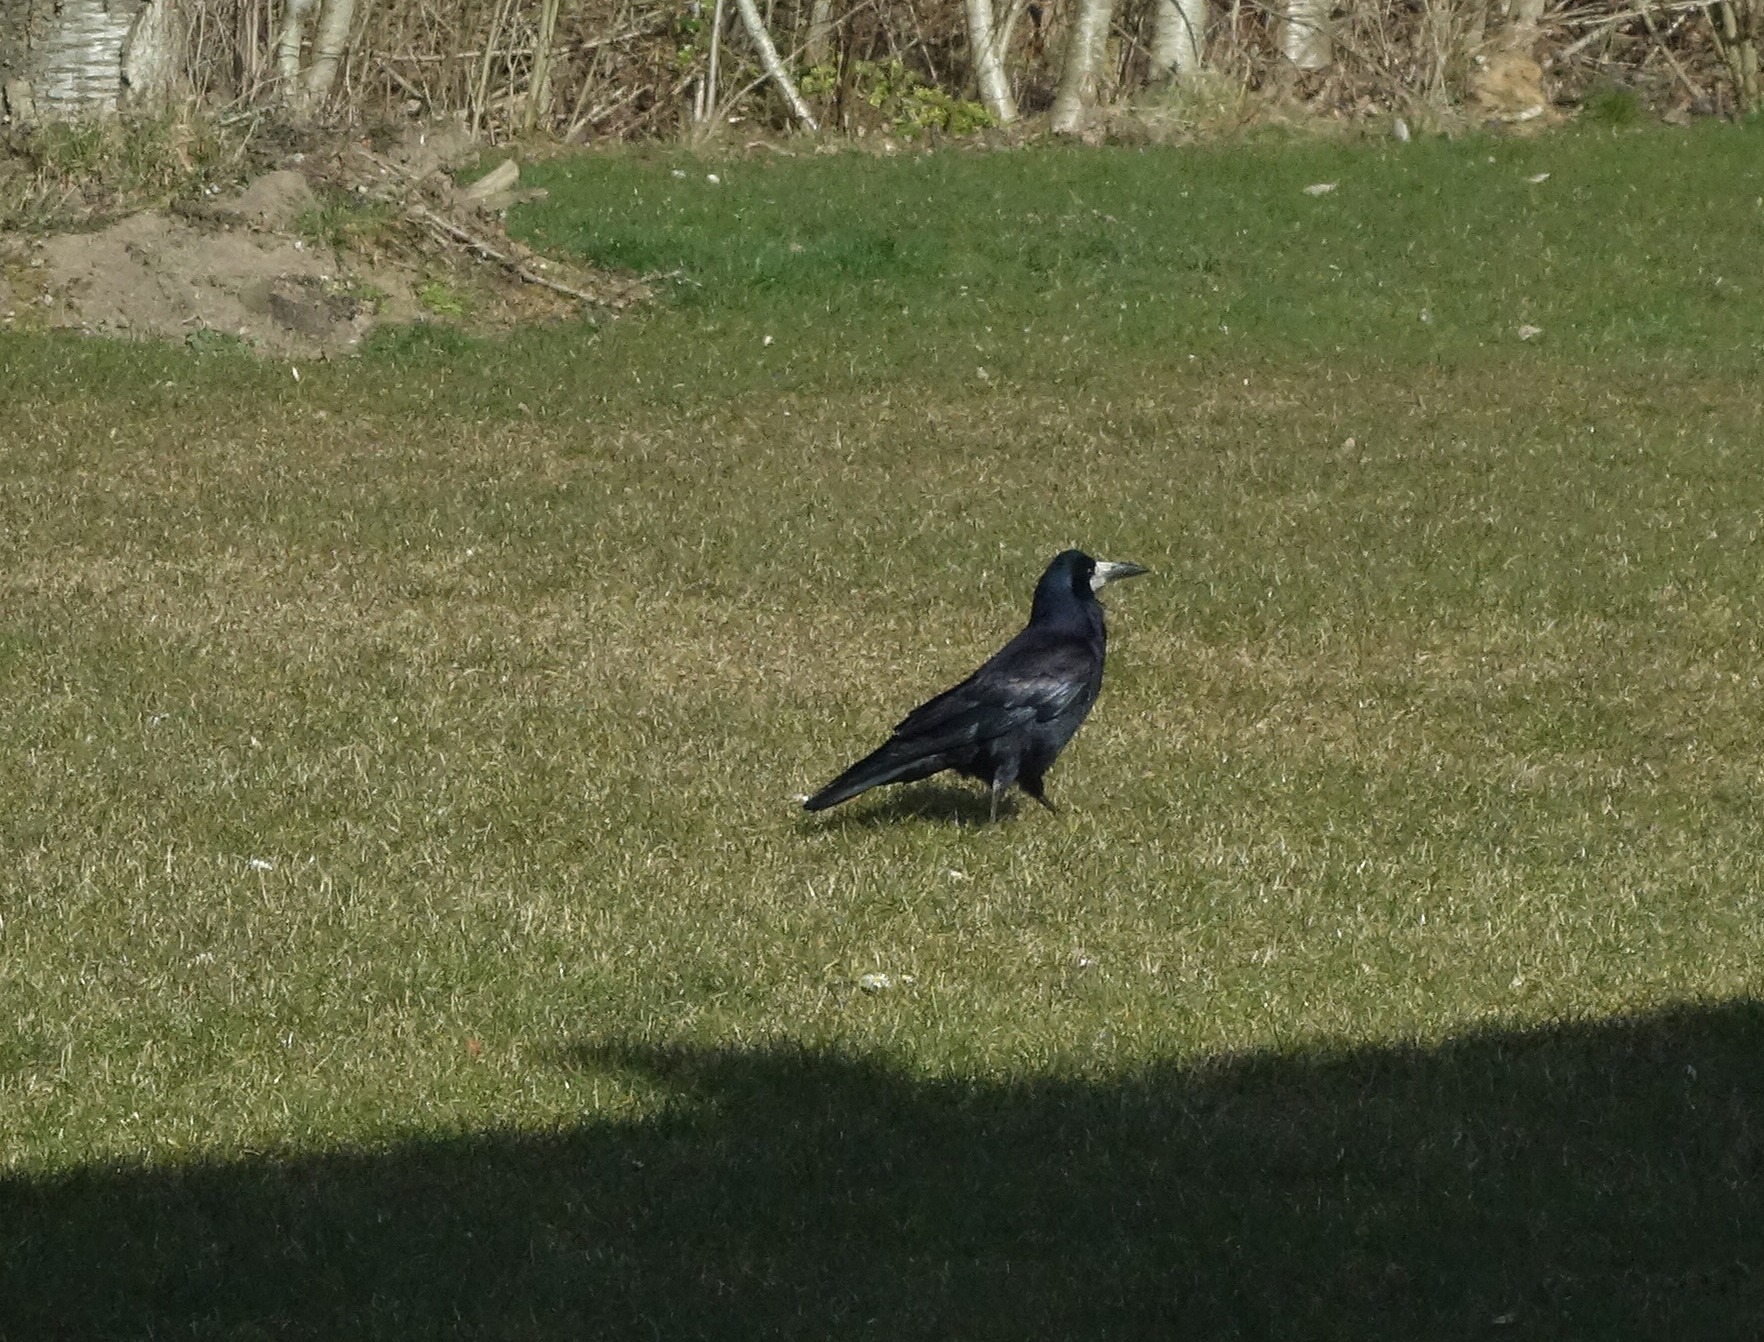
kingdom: Animalia
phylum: Chordata
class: Aves
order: Passeriformes
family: Corvidae
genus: Corvus
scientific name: Corvus frugilegus
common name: Råge
